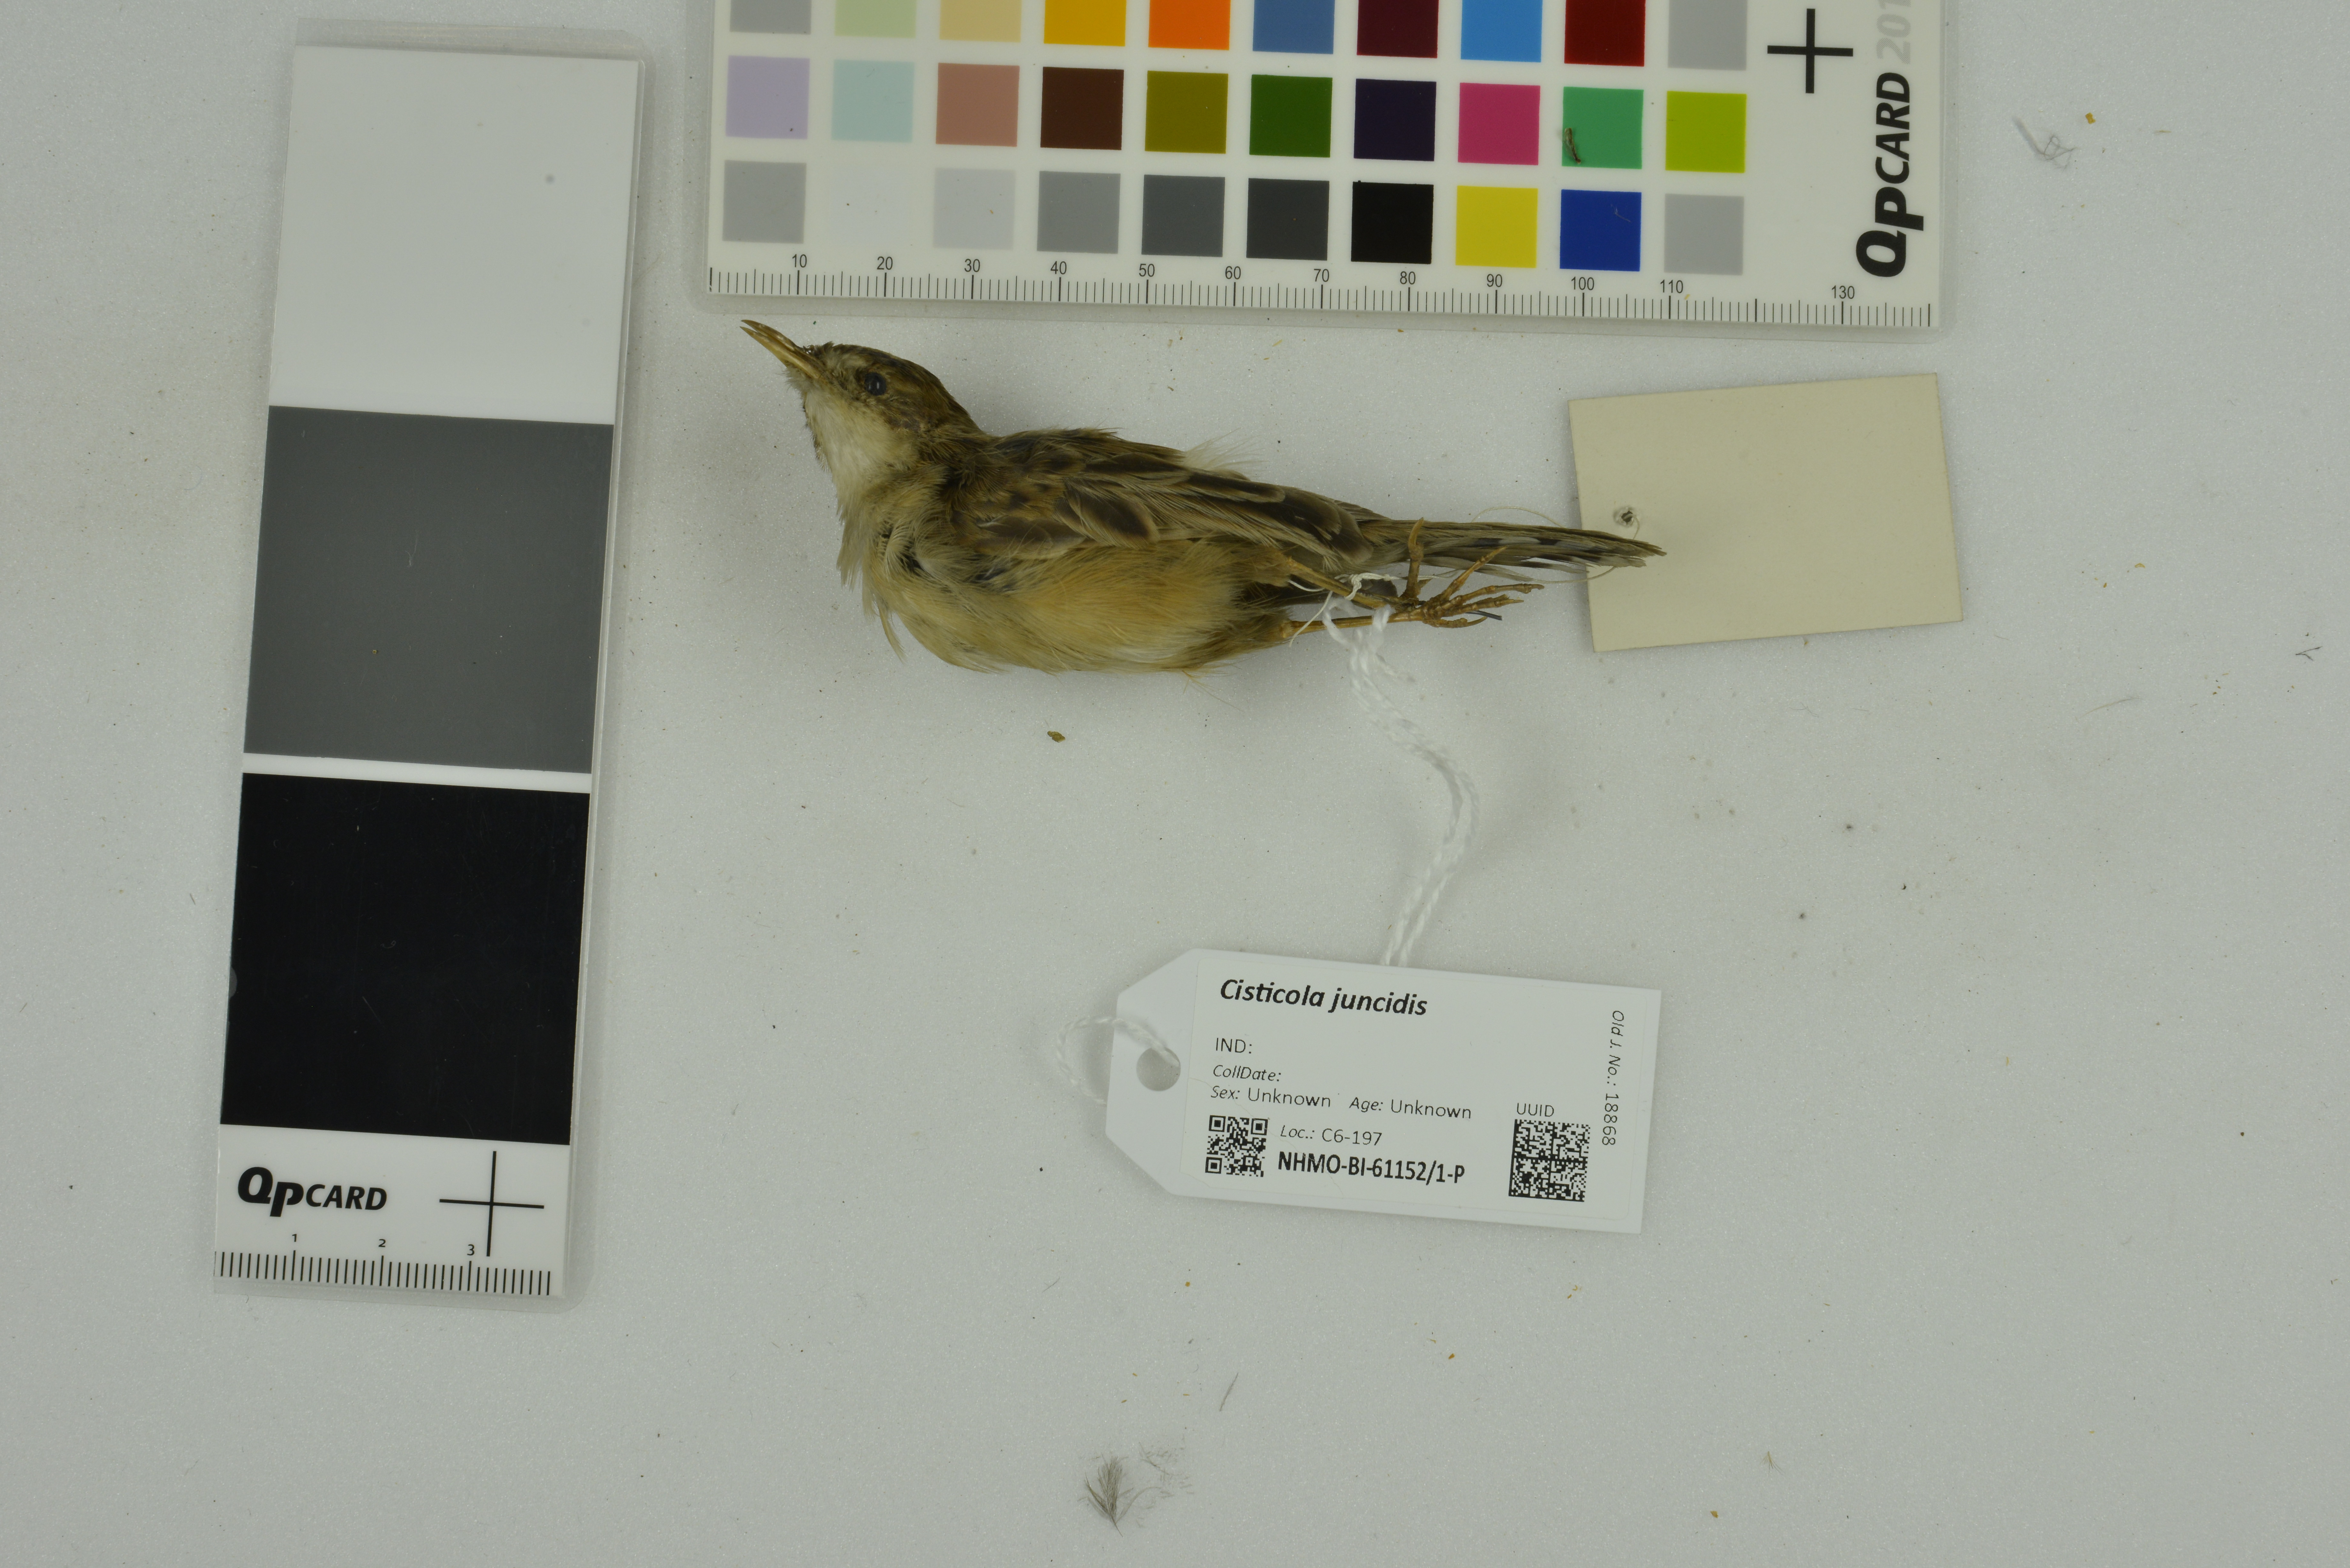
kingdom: Animalia
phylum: Chordata
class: Aves
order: Passeriformes
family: Cisticolidae
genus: Cisticola
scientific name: Cisticola juncidis
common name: Zitting cisticola
